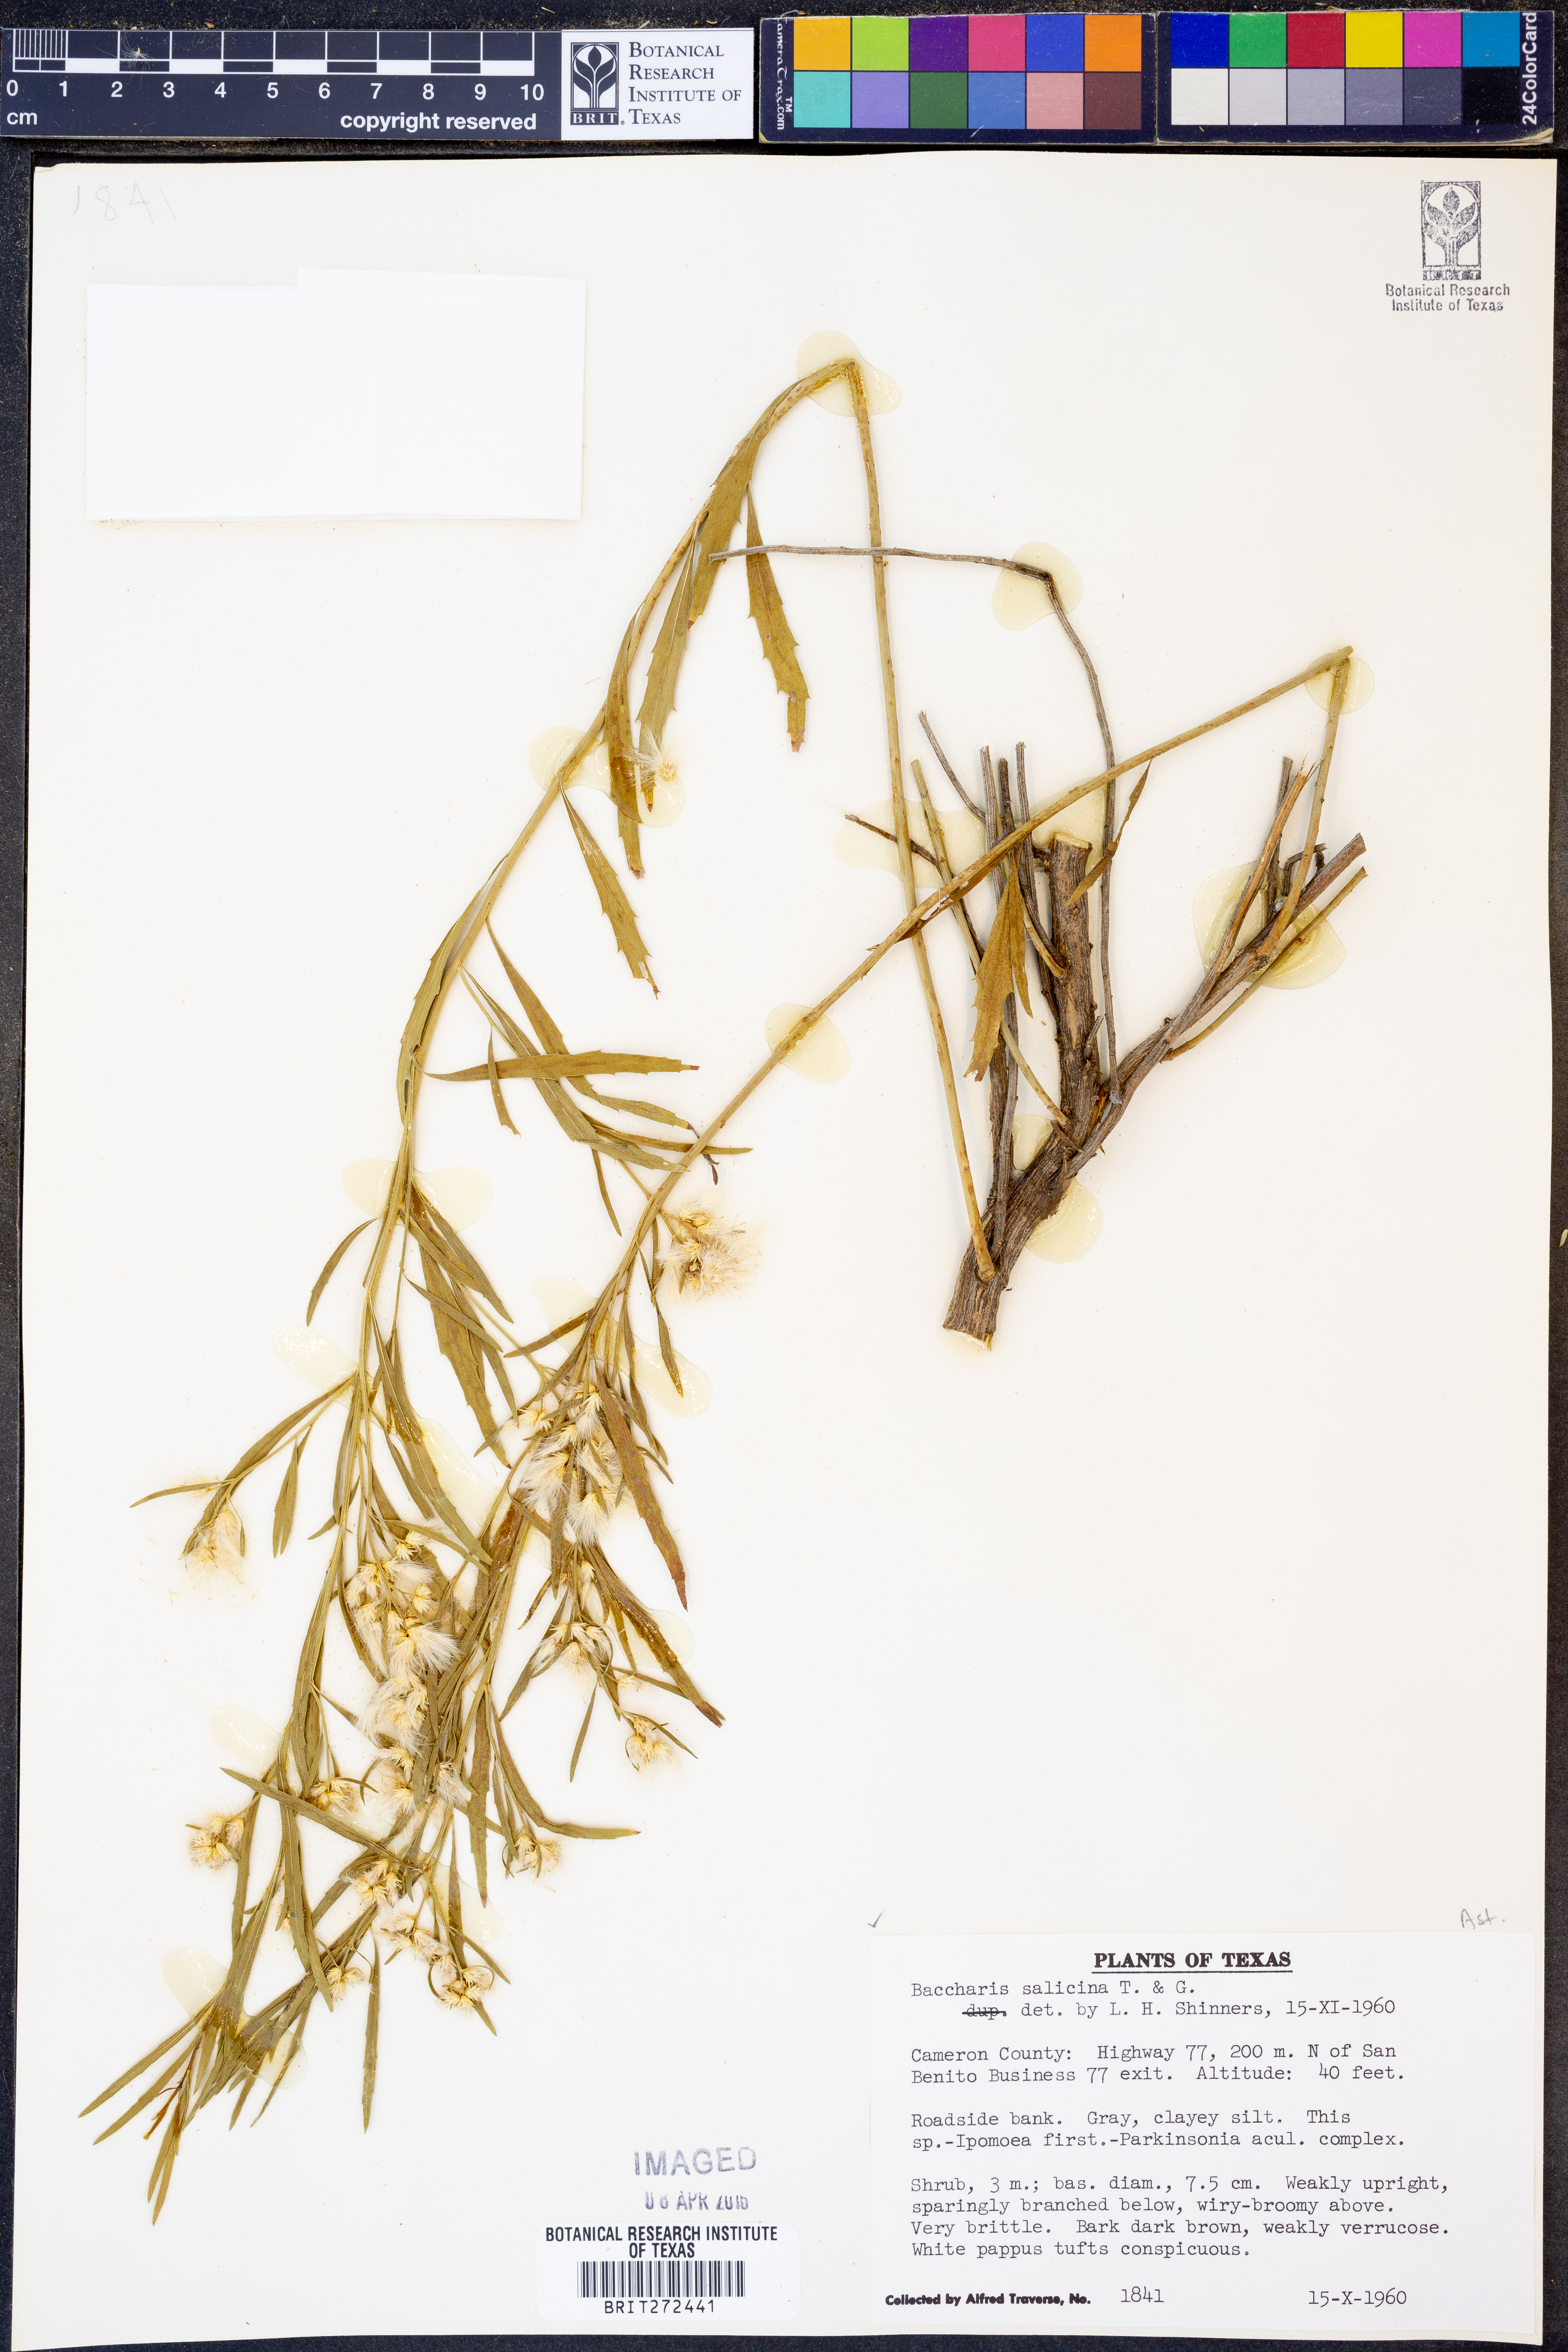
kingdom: Plantae
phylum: Tracheophyta
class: Magnoliopsida
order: Asterales
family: Asteraceae
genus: Baccharis
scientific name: Baccharis salicina
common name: Willow baccharis
